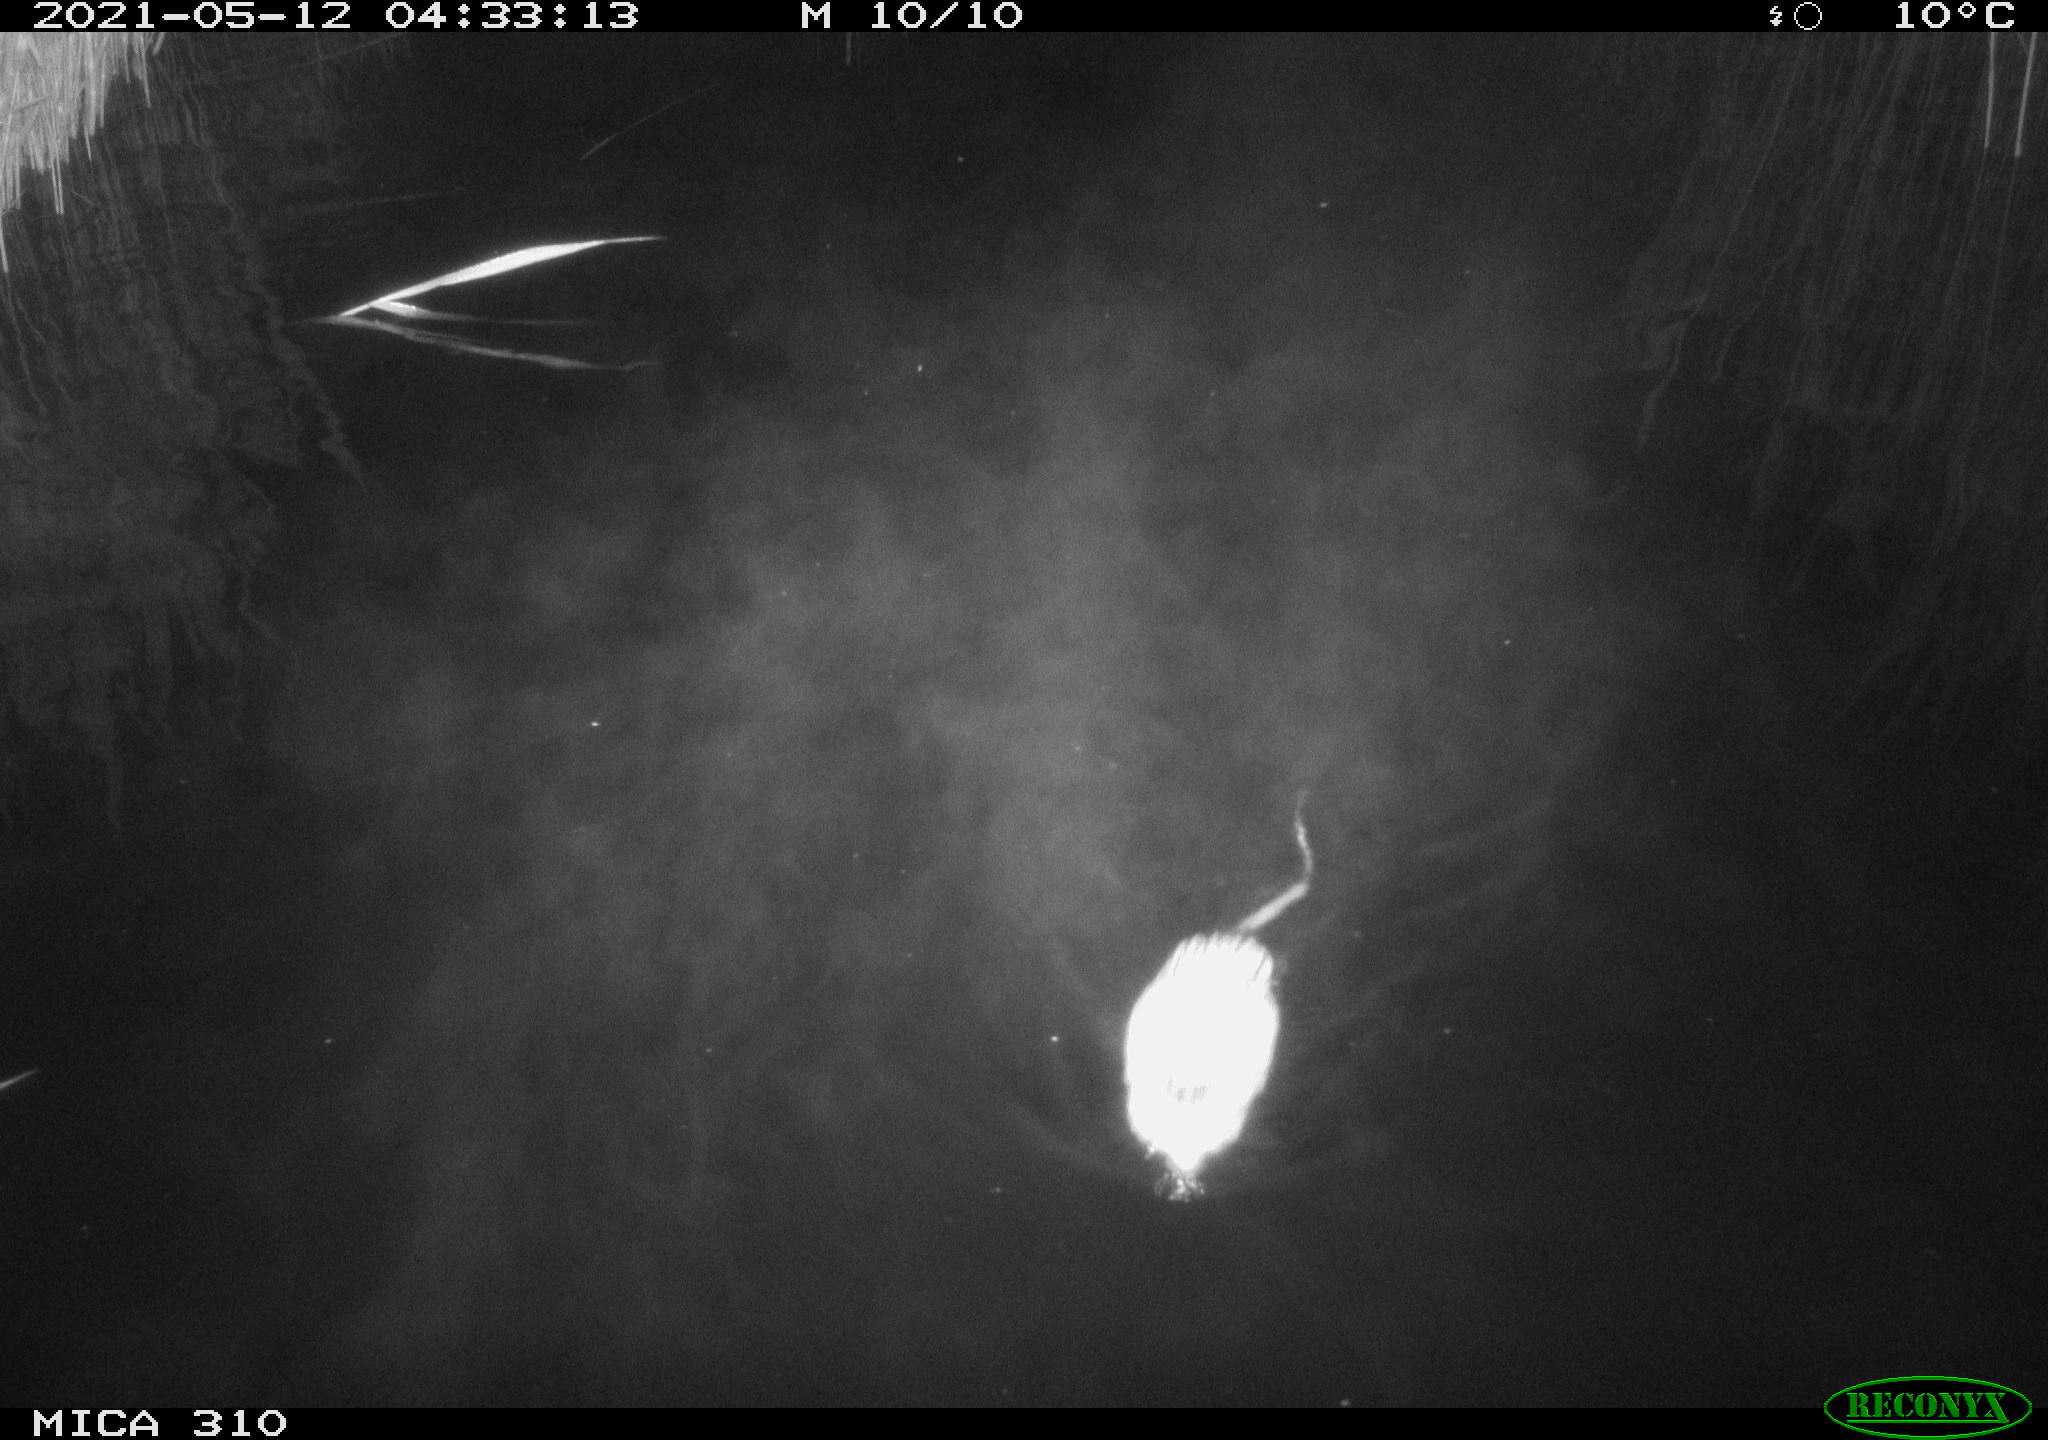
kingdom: Animalia
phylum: Chordata
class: Mammalia
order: Rodentia
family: Muridae
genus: Rattus
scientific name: Rattus norvegicus
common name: Brown rat
